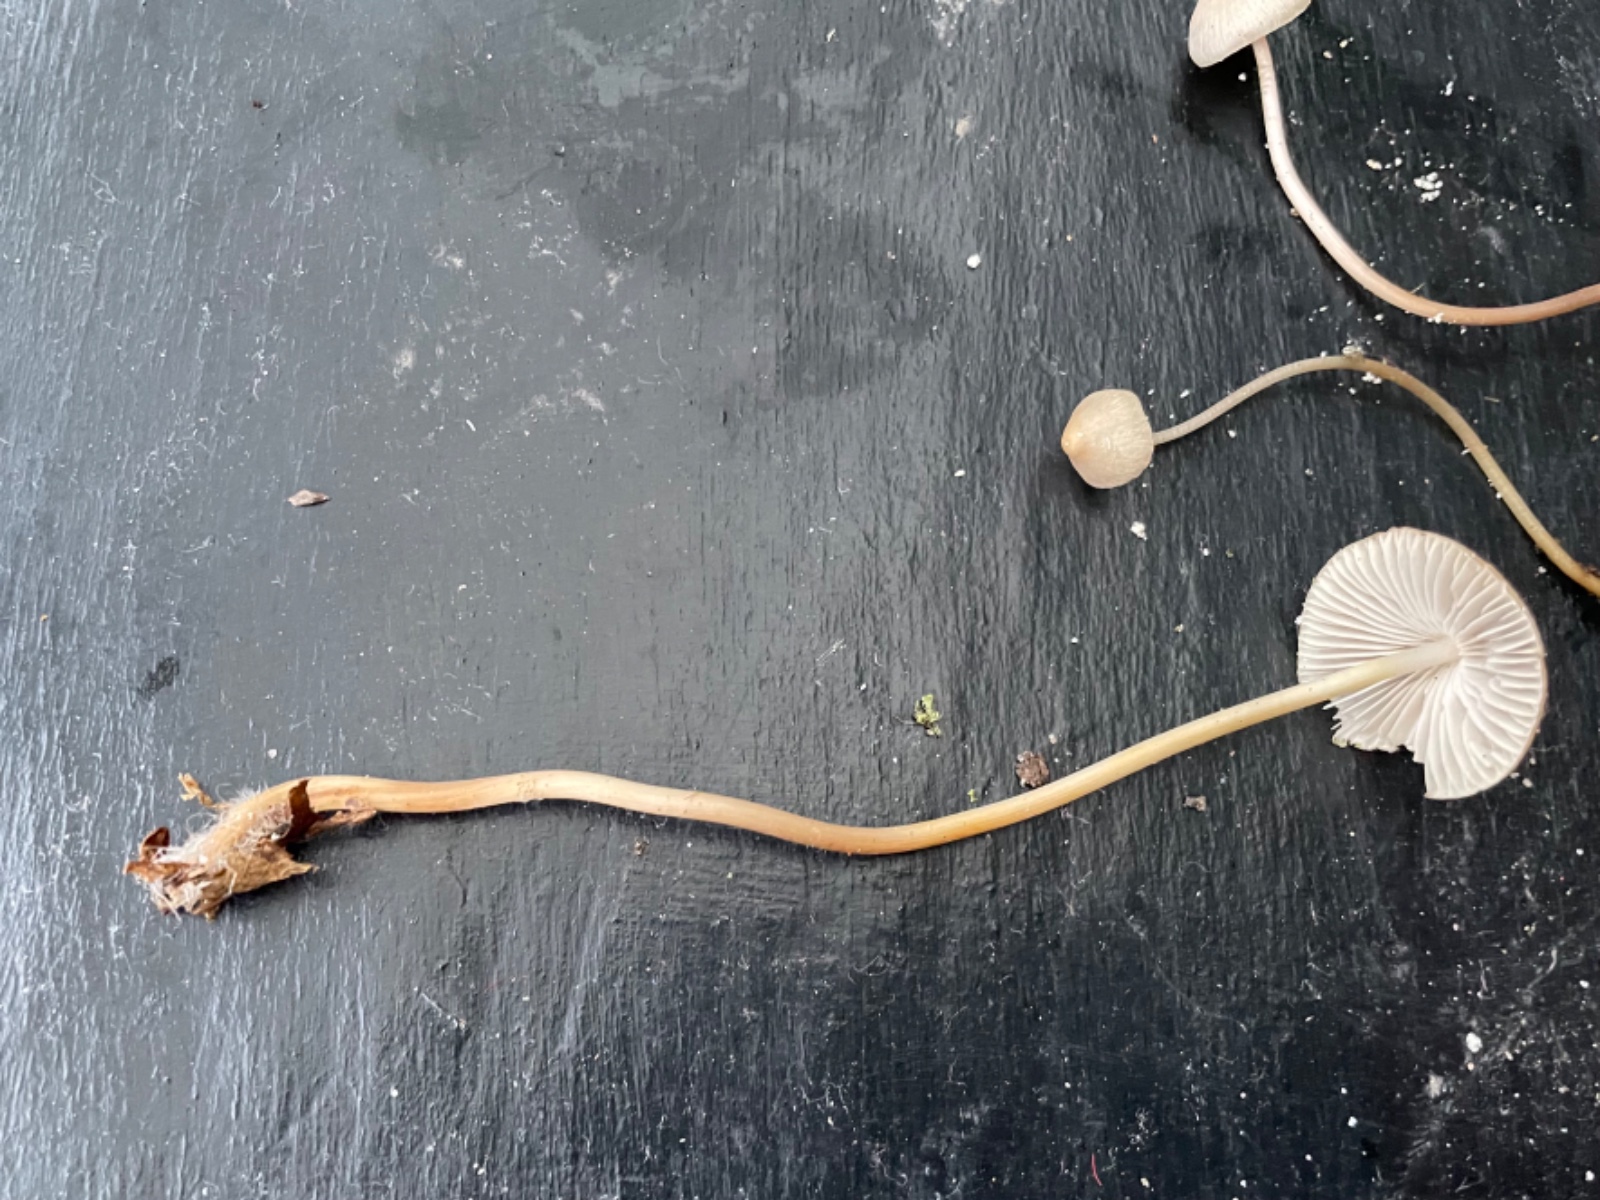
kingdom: Fungi
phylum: Basidiomycota
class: Agaricomycetes
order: Agaricales
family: Mycenaceae
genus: Mycena
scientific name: Mycena
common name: huesvamp
